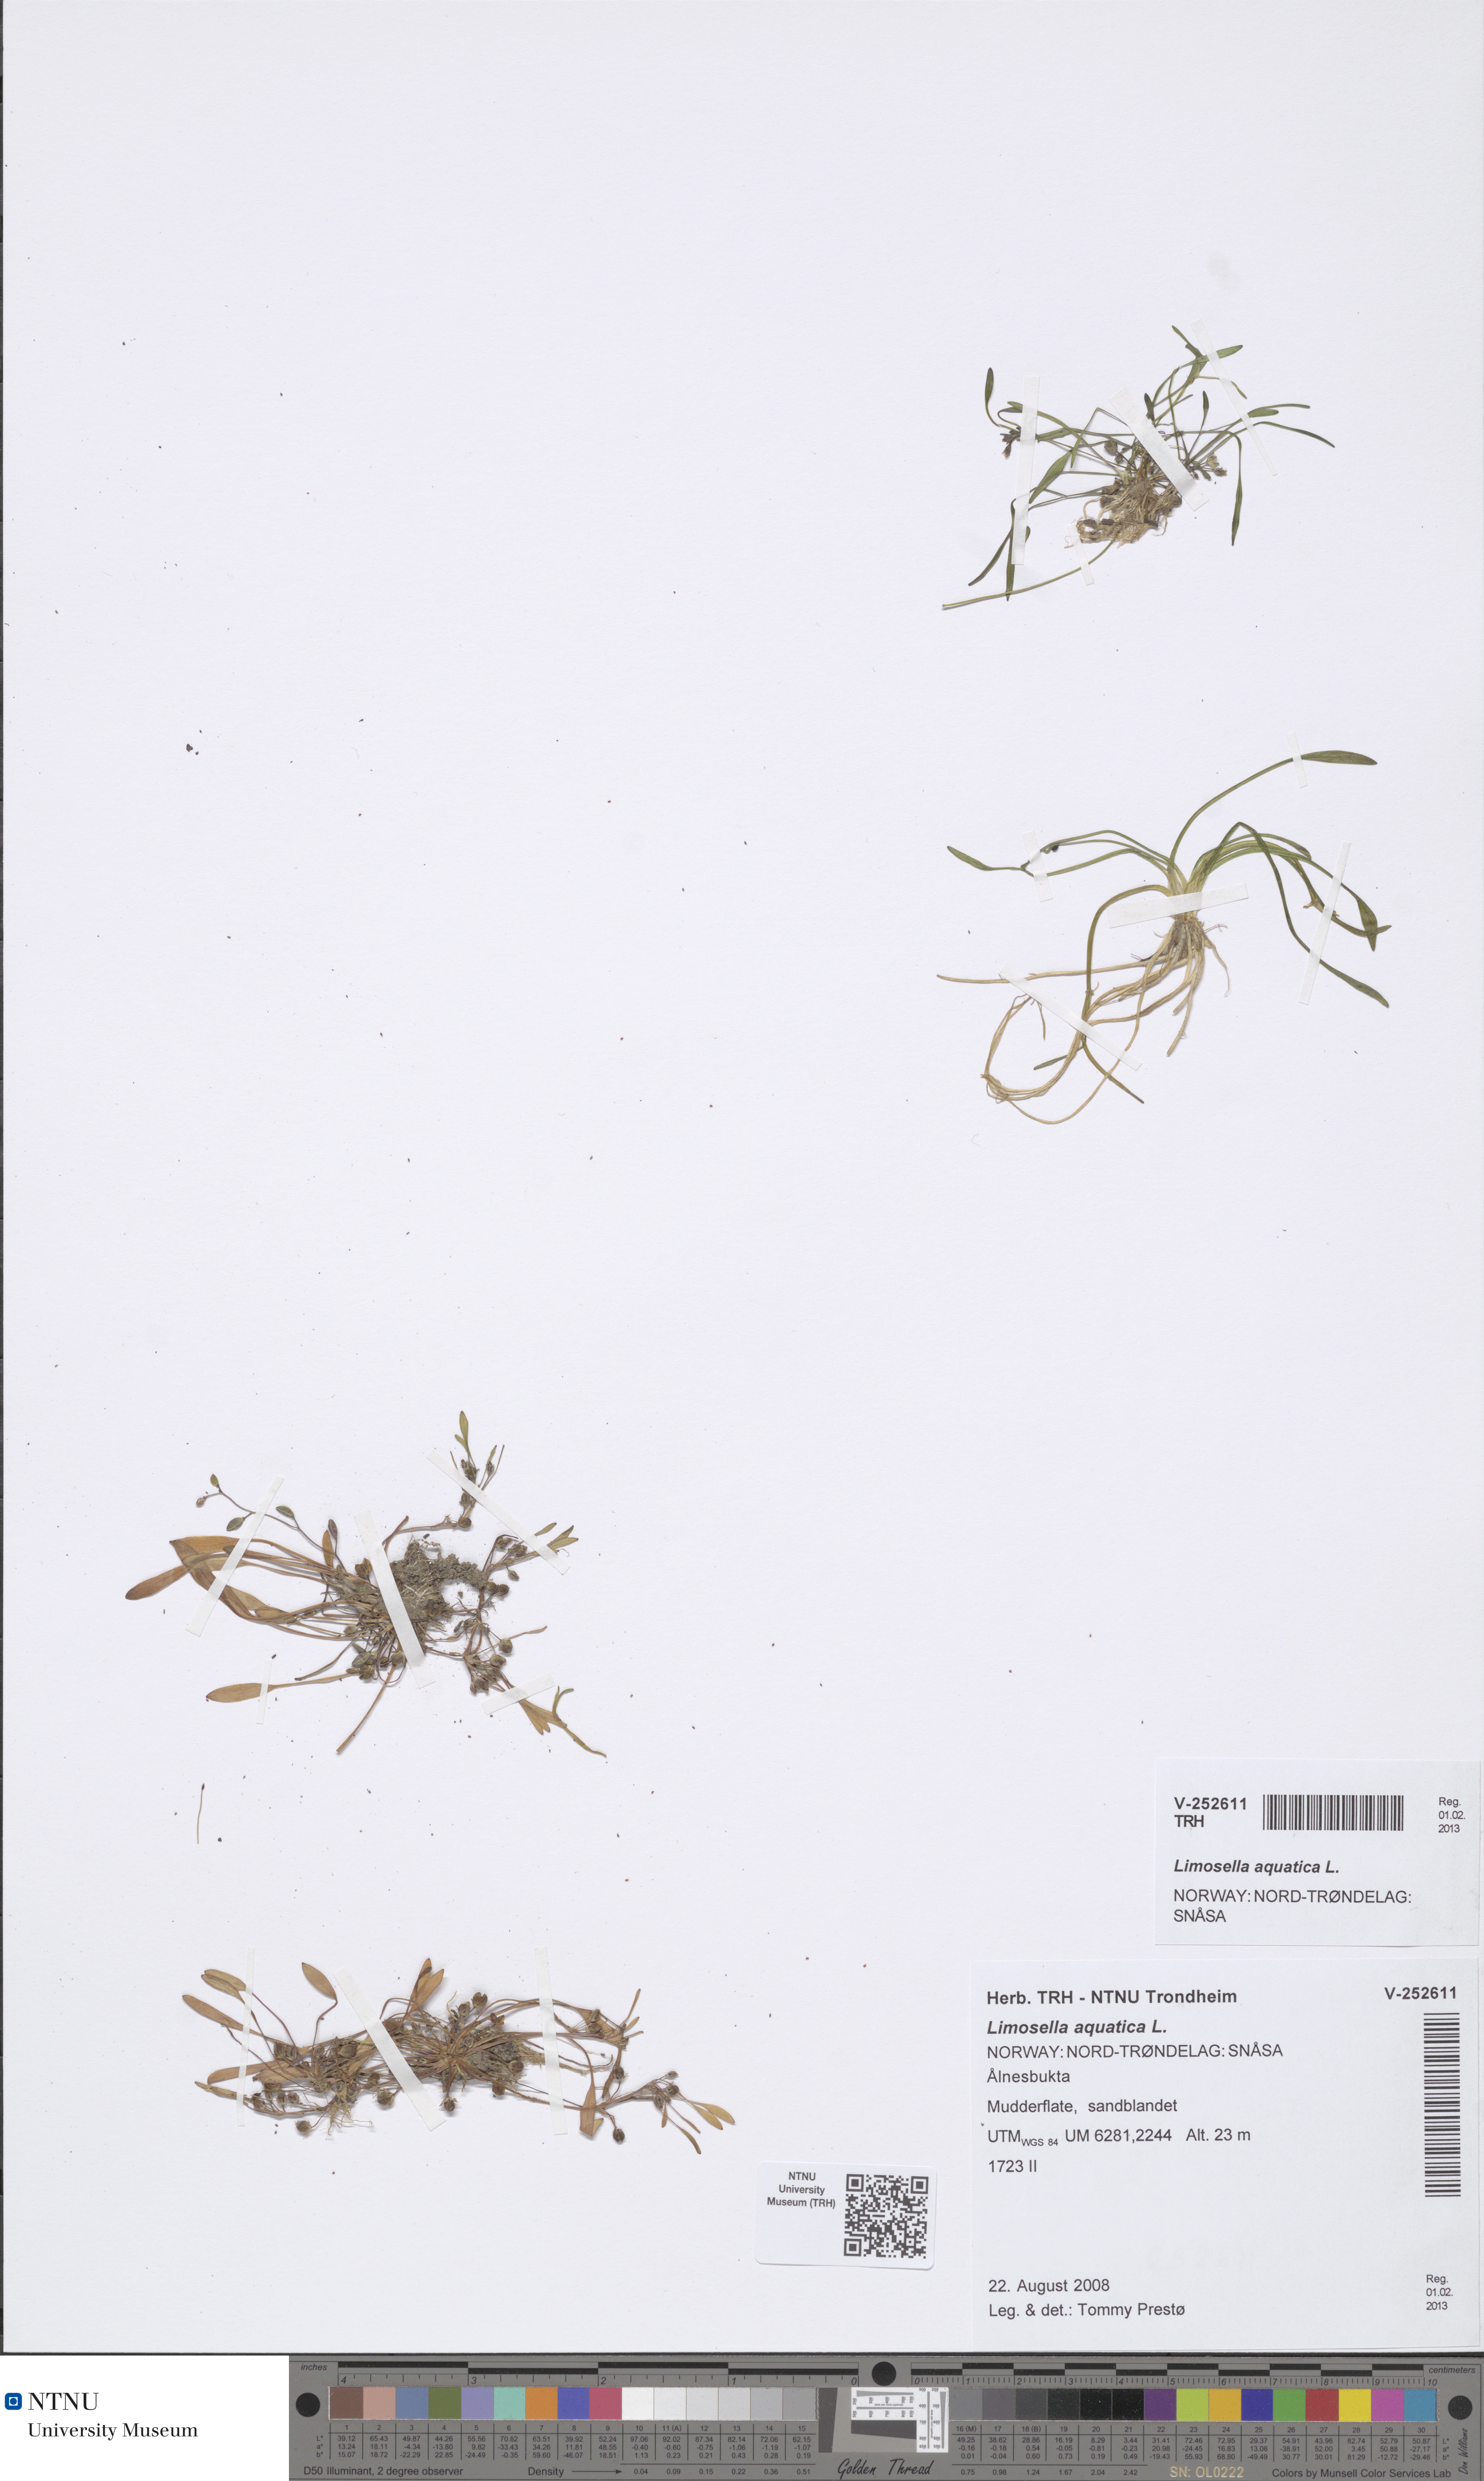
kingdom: Plantae
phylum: Tracheophyta
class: Magnoliopsida
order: Lamiales
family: Scrophulariaceae
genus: Limosella
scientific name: Limosella aquatica
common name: Mudwort
